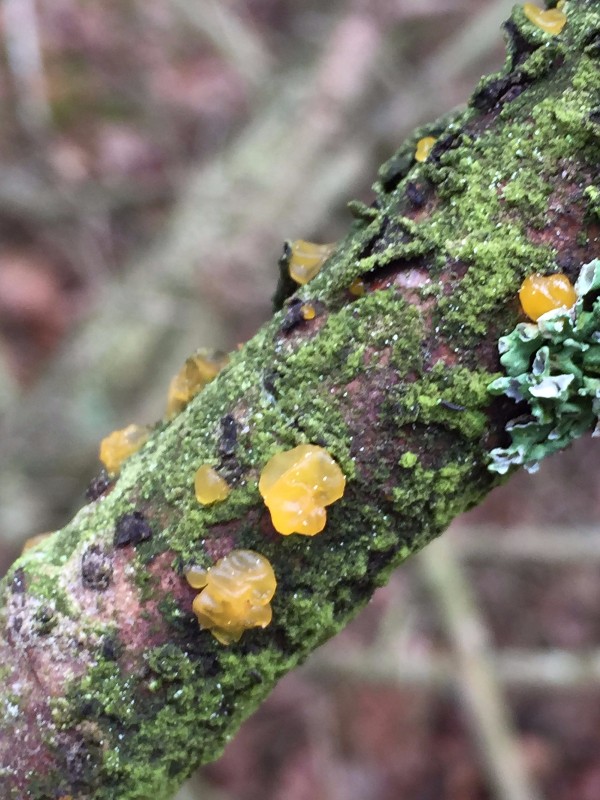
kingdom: Fungi
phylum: Basidiomycota
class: Dacrymycetes
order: Dacrymycetales
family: Dacrymycetaceae
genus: Dacrymyces
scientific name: Dacrymyces lacrymalis
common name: rynket tåresvamp
